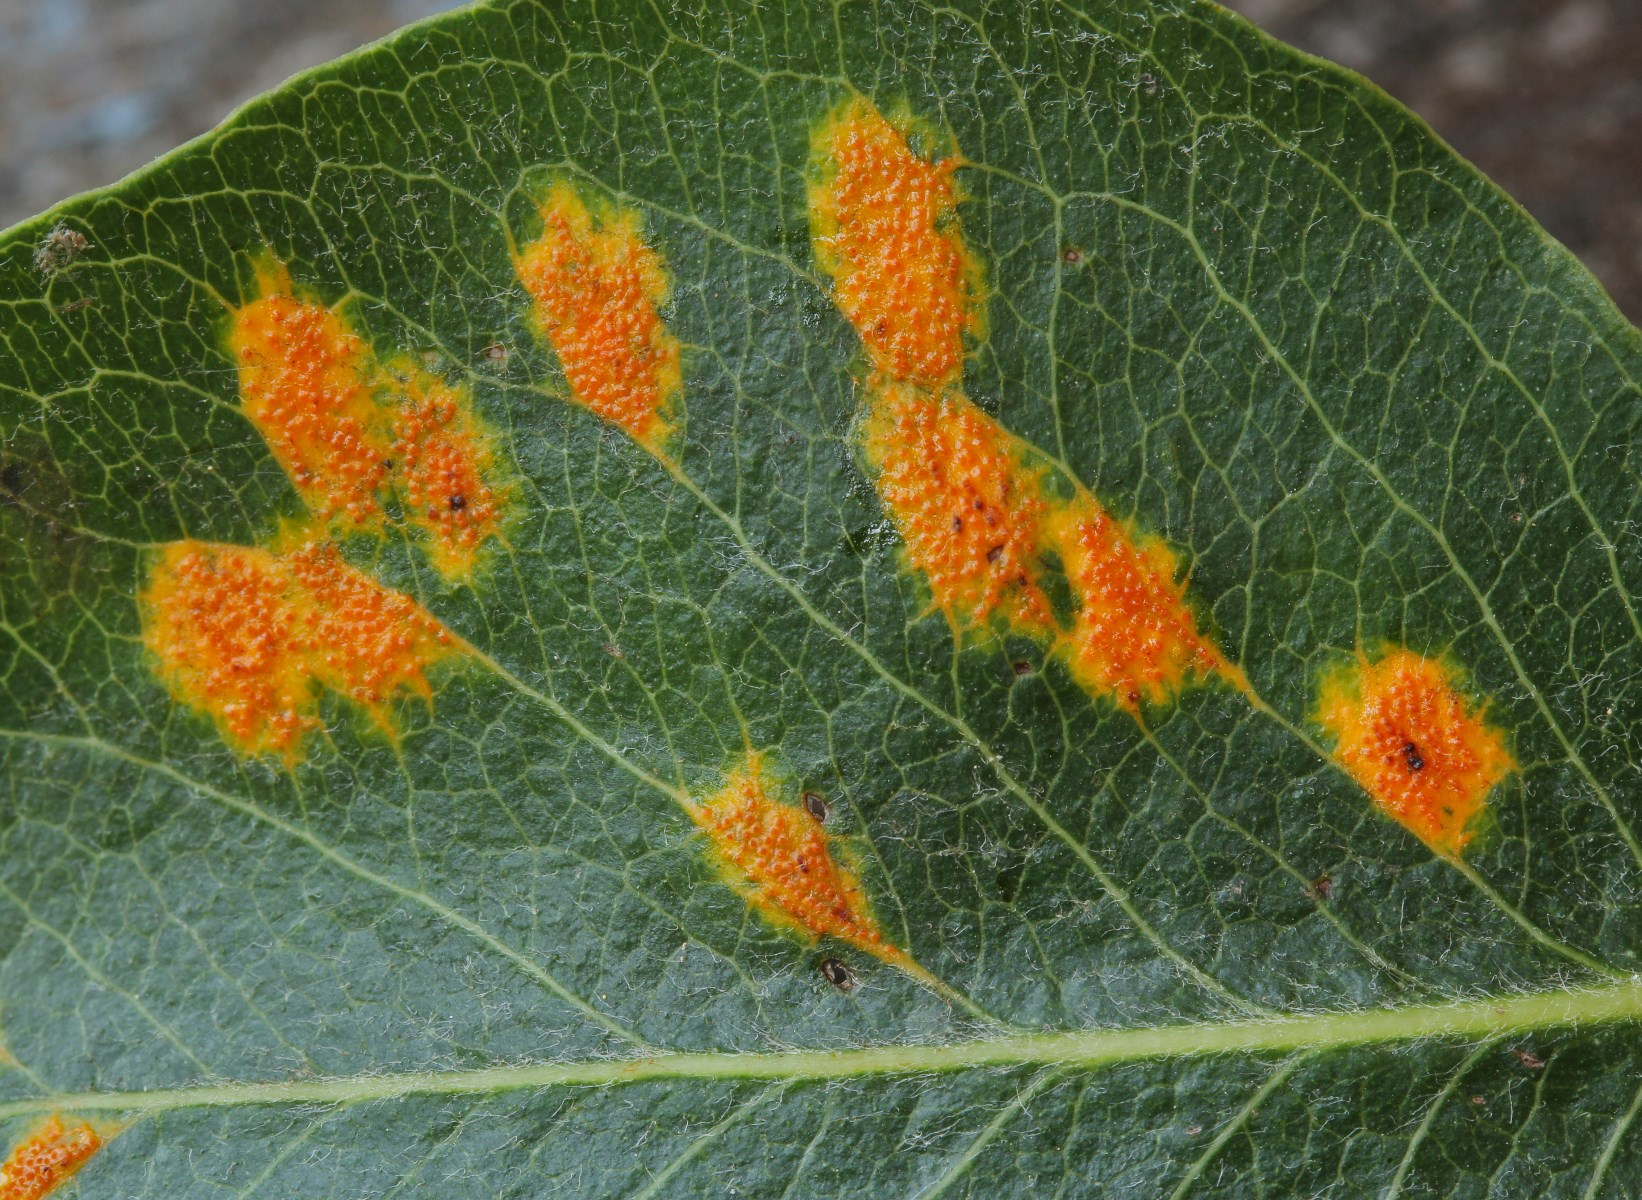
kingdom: Fungi
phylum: Basidiomycota
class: Pucciniomycetes
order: Pucciniales
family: Gymnosporangiaceae
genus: Gymnosporangium
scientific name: Gymnosporangium sabinae
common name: pæregitter-bævrerust
